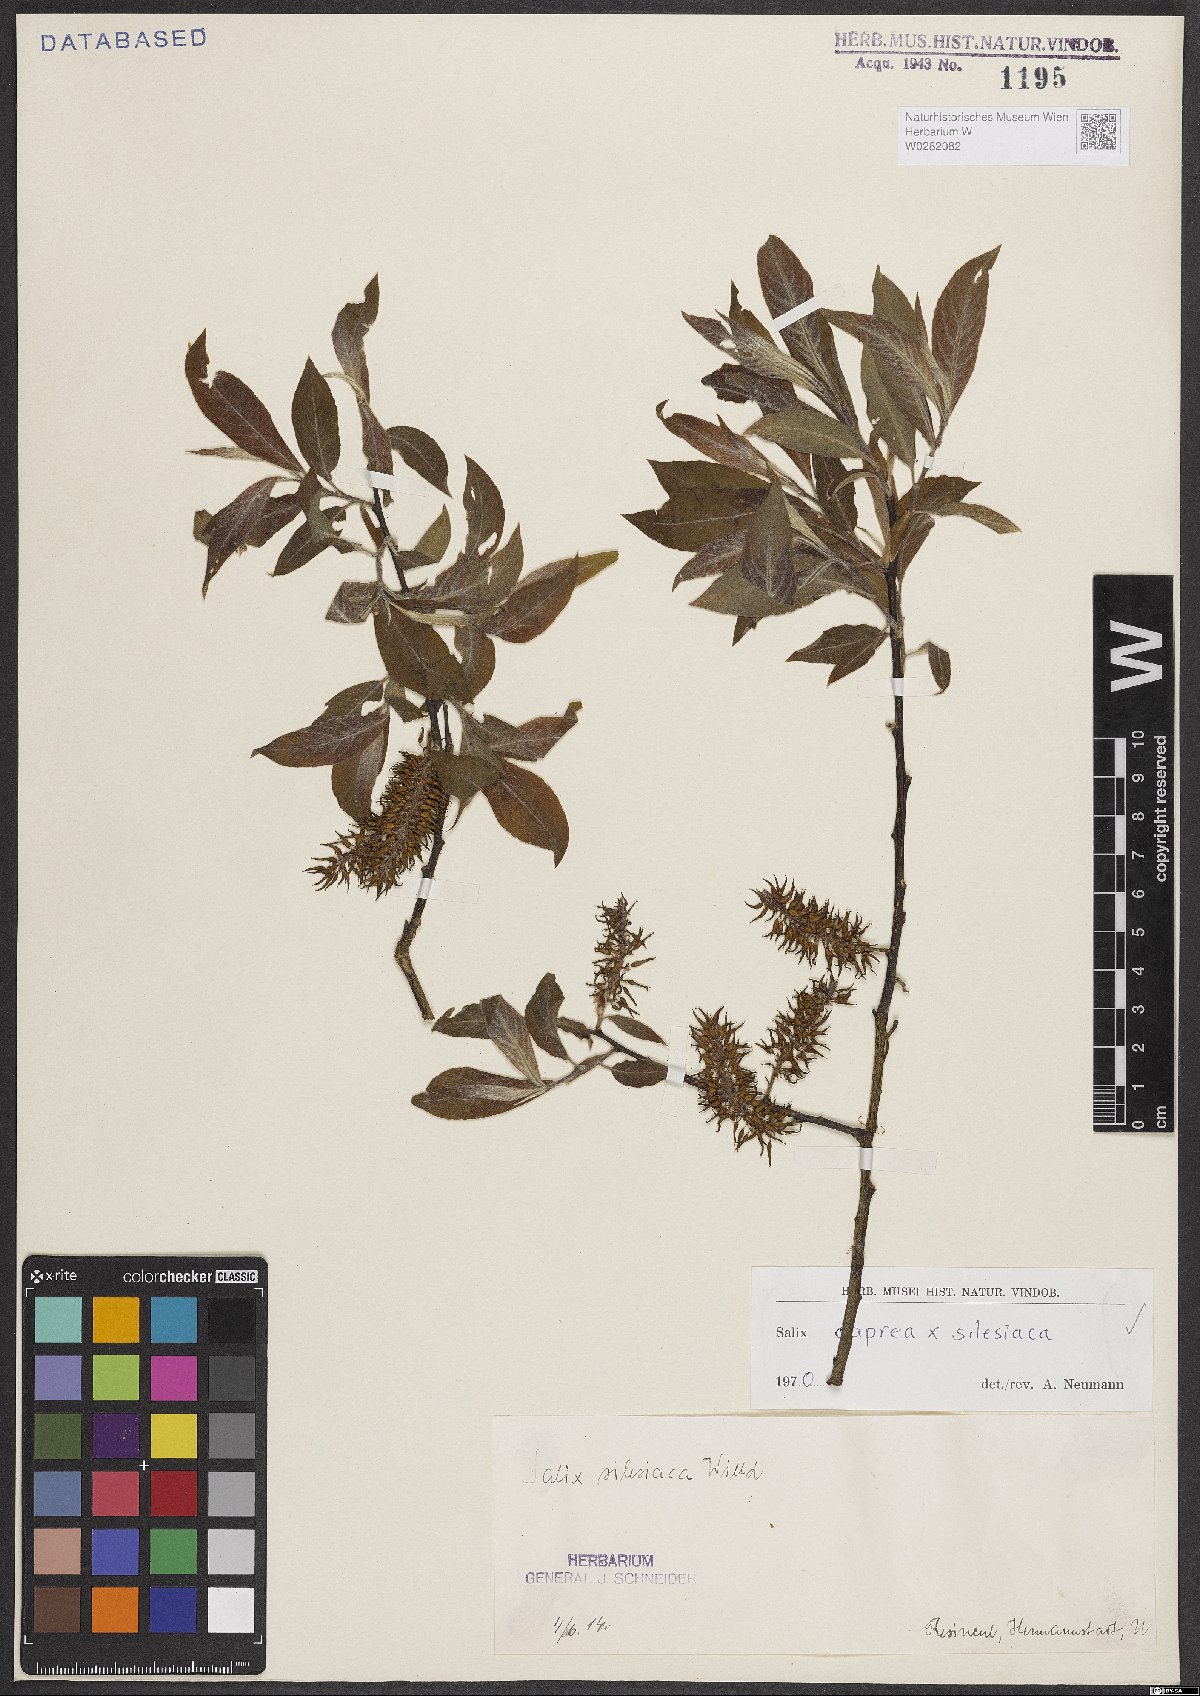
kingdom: Plantae
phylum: Tracheophyta
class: Magnoliopsida
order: Malpighiales
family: Salicaceae
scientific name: Salicaceae
